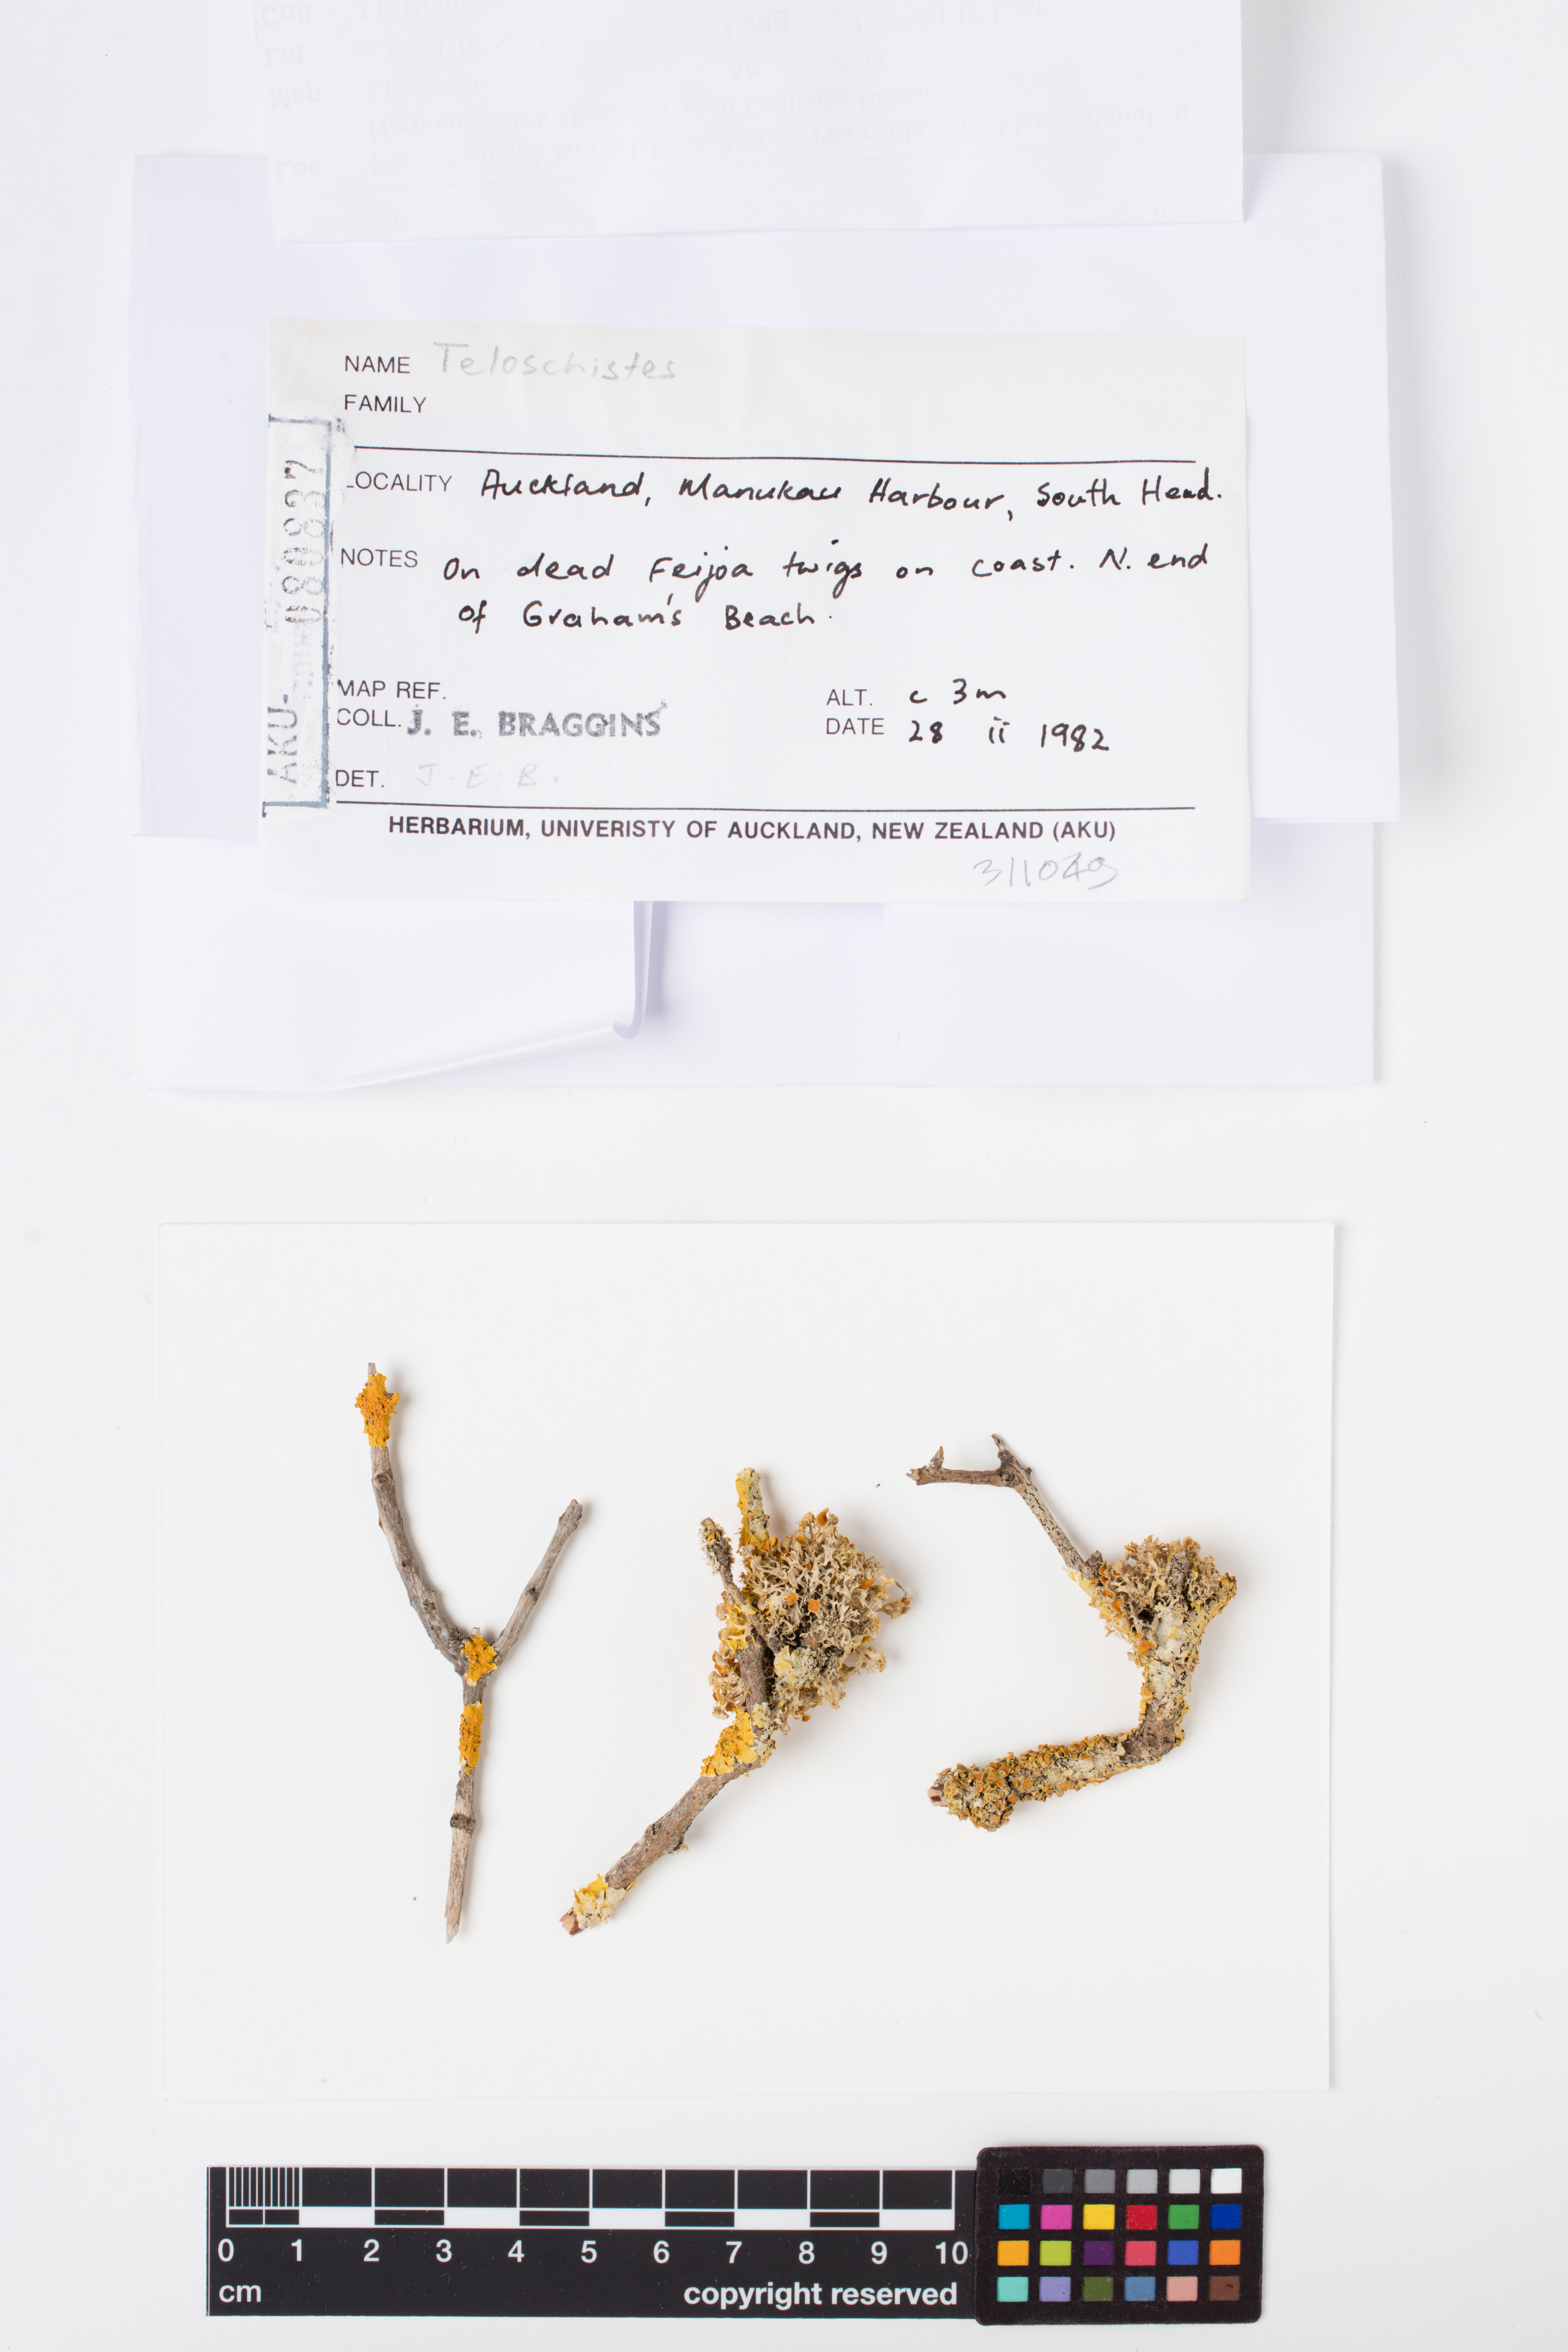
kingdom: Fungi
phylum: Ascomycota
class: Lecanoromycetes
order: Teloschistales
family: Teloschistaceae
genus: Niorma
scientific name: Niorma chrysophthalma
